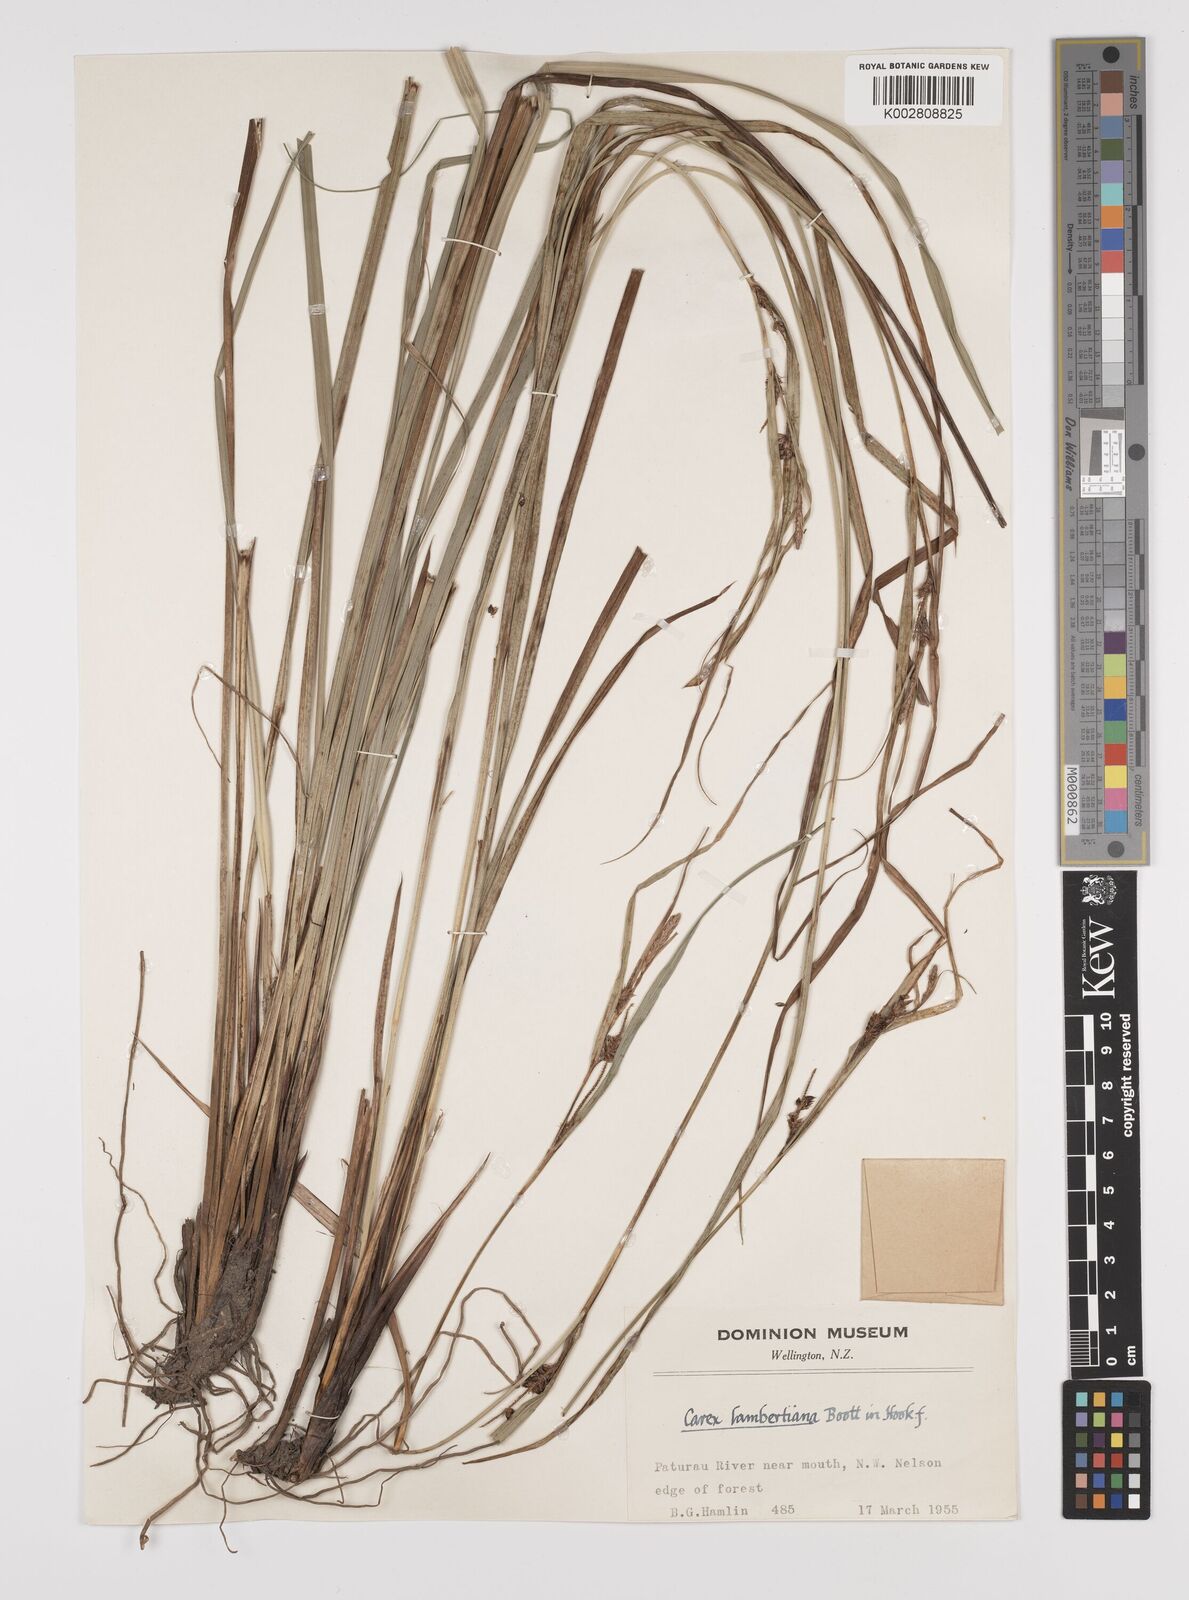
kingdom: Plantae
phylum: Tracheophyta
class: Liliopsida
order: Poales
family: Cyperaceae
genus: Carex
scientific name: Carex dissita
